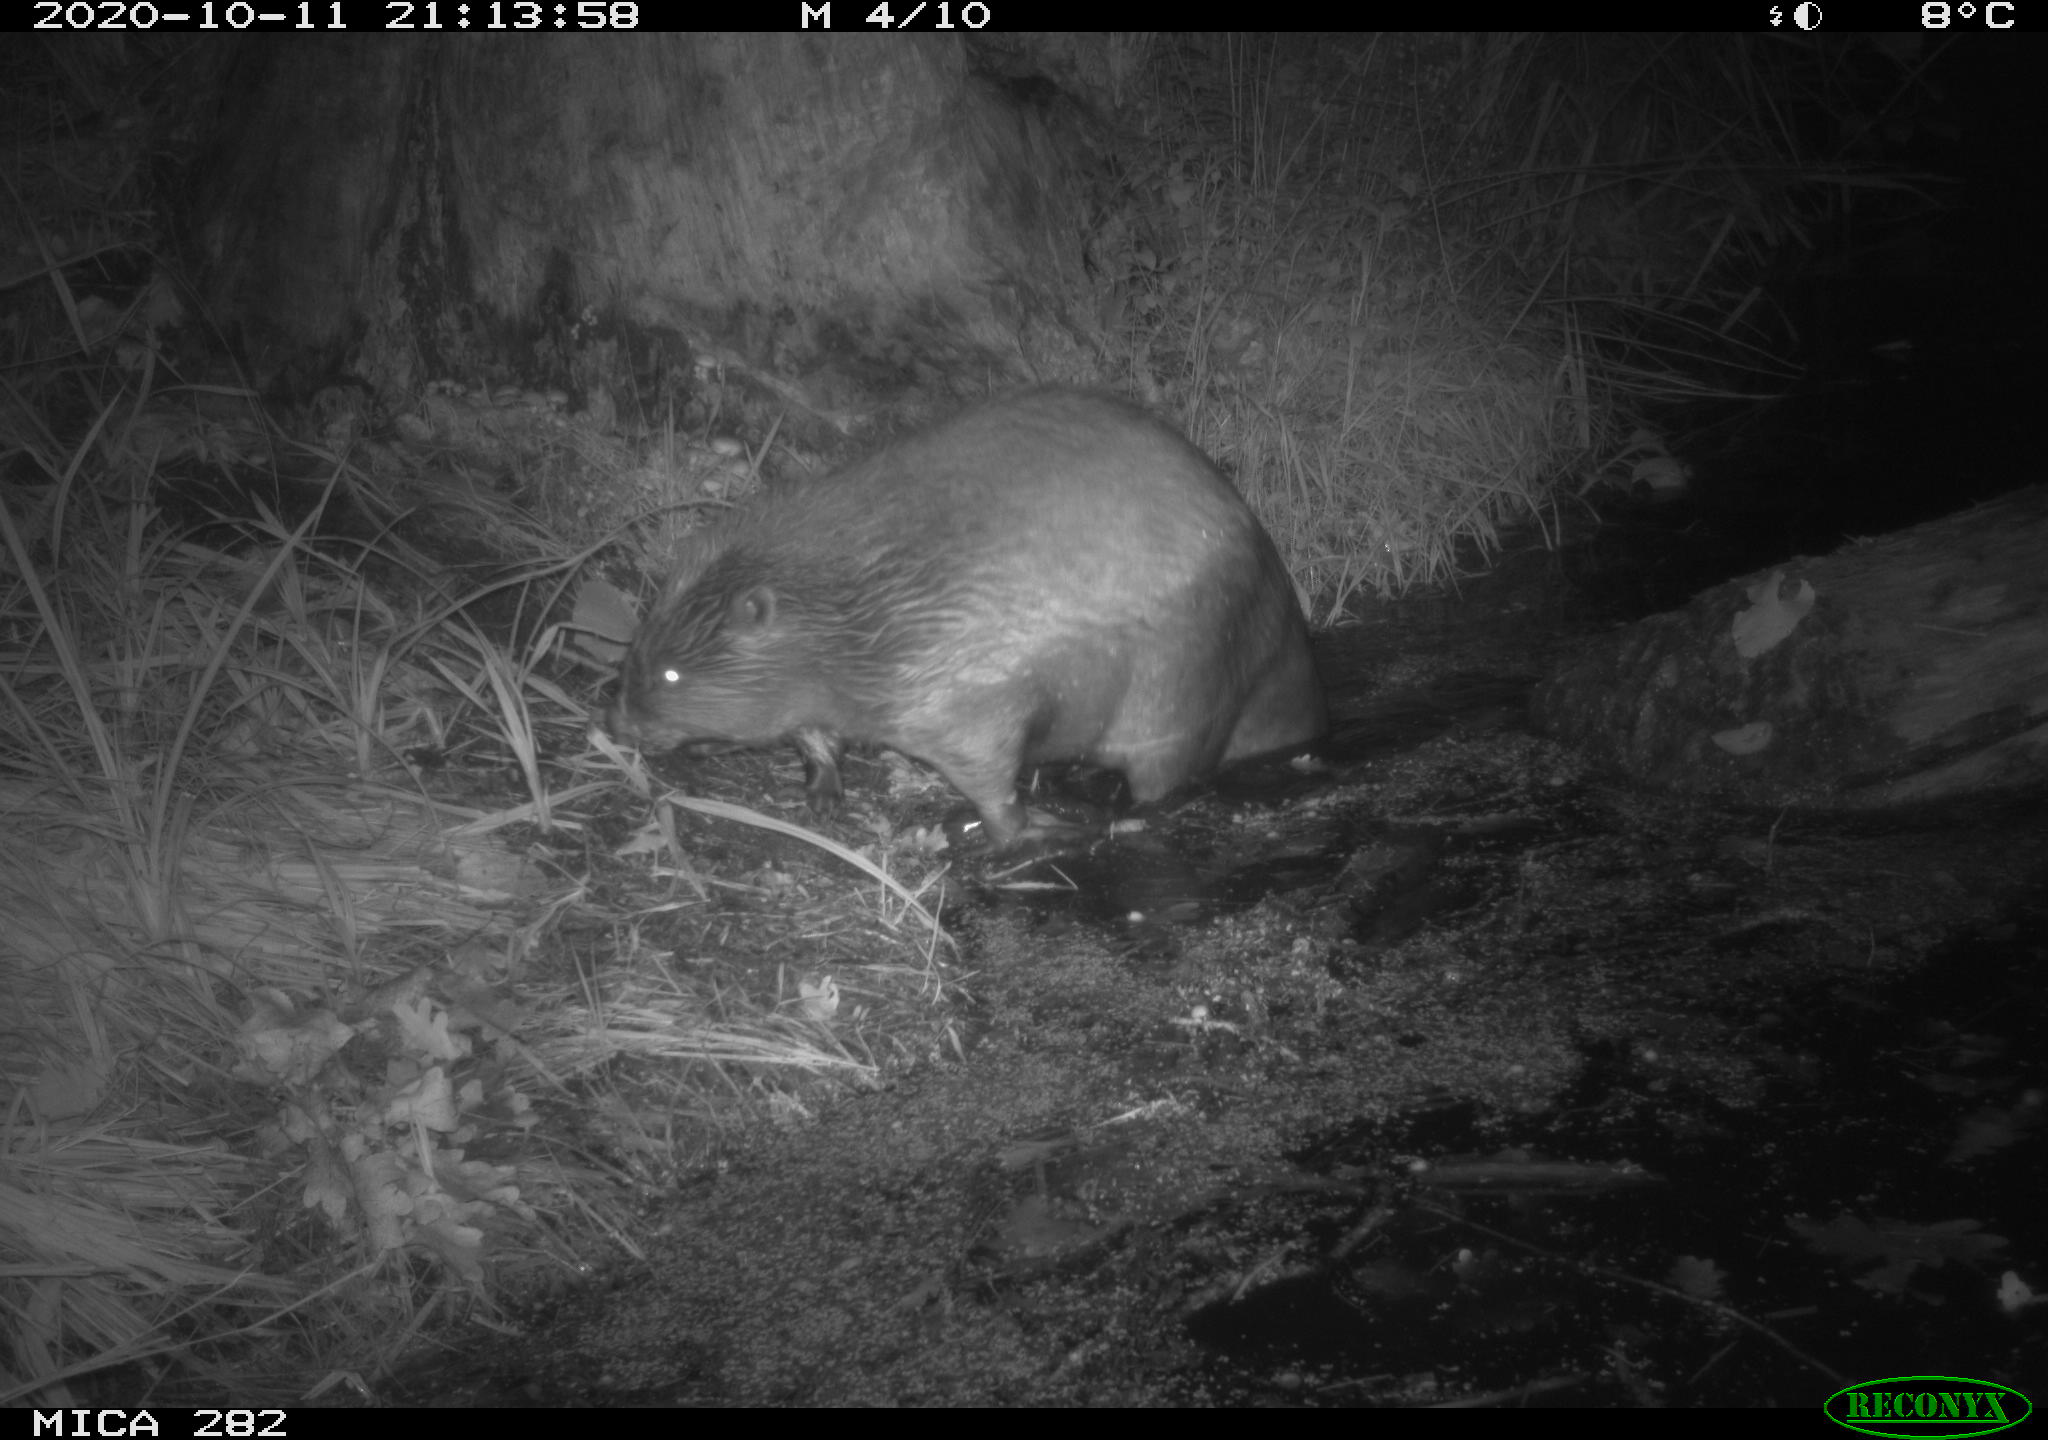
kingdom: Animalia
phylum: Chordata
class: Mammalia
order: Rodentia
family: Castoridae
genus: Castor
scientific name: Castor fiber
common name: Eurasian beaver
